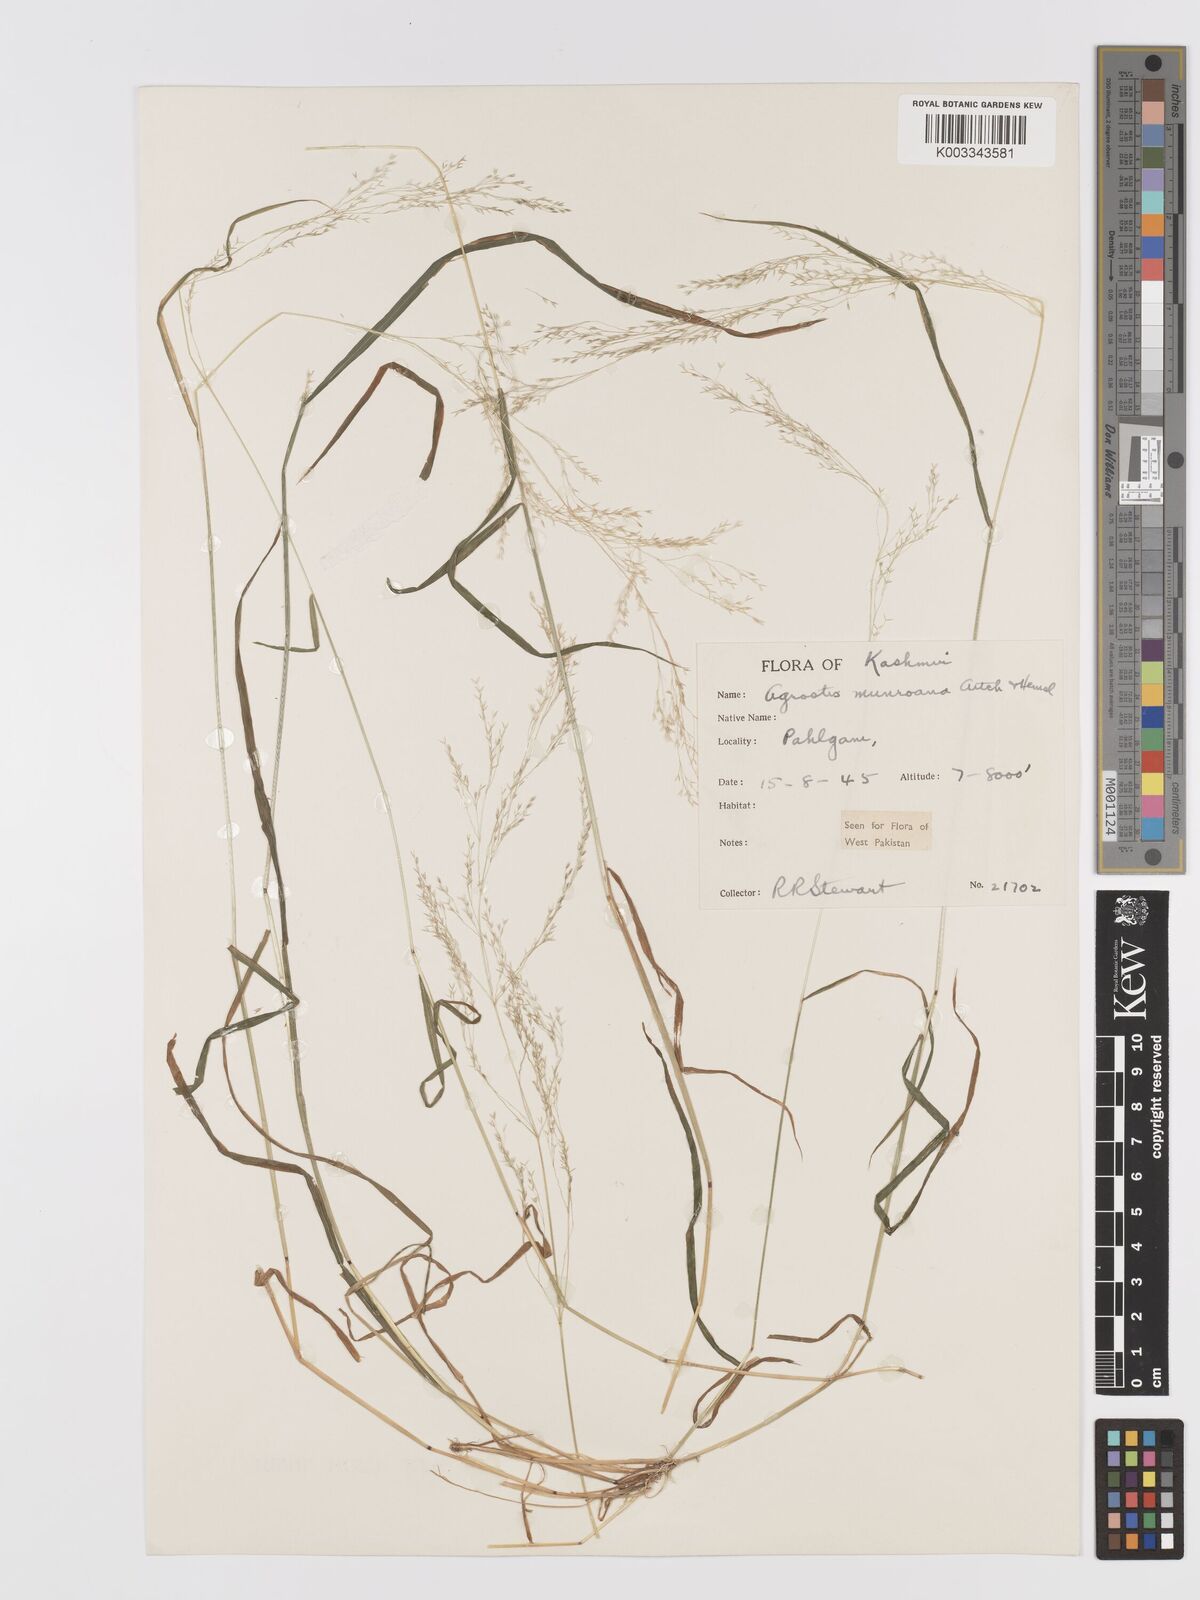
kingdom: Plantae
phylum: Tracheophyta
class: Liliopsida
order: Poales
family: Poaceae
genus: Agrostis
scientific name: Agrostis munroana
